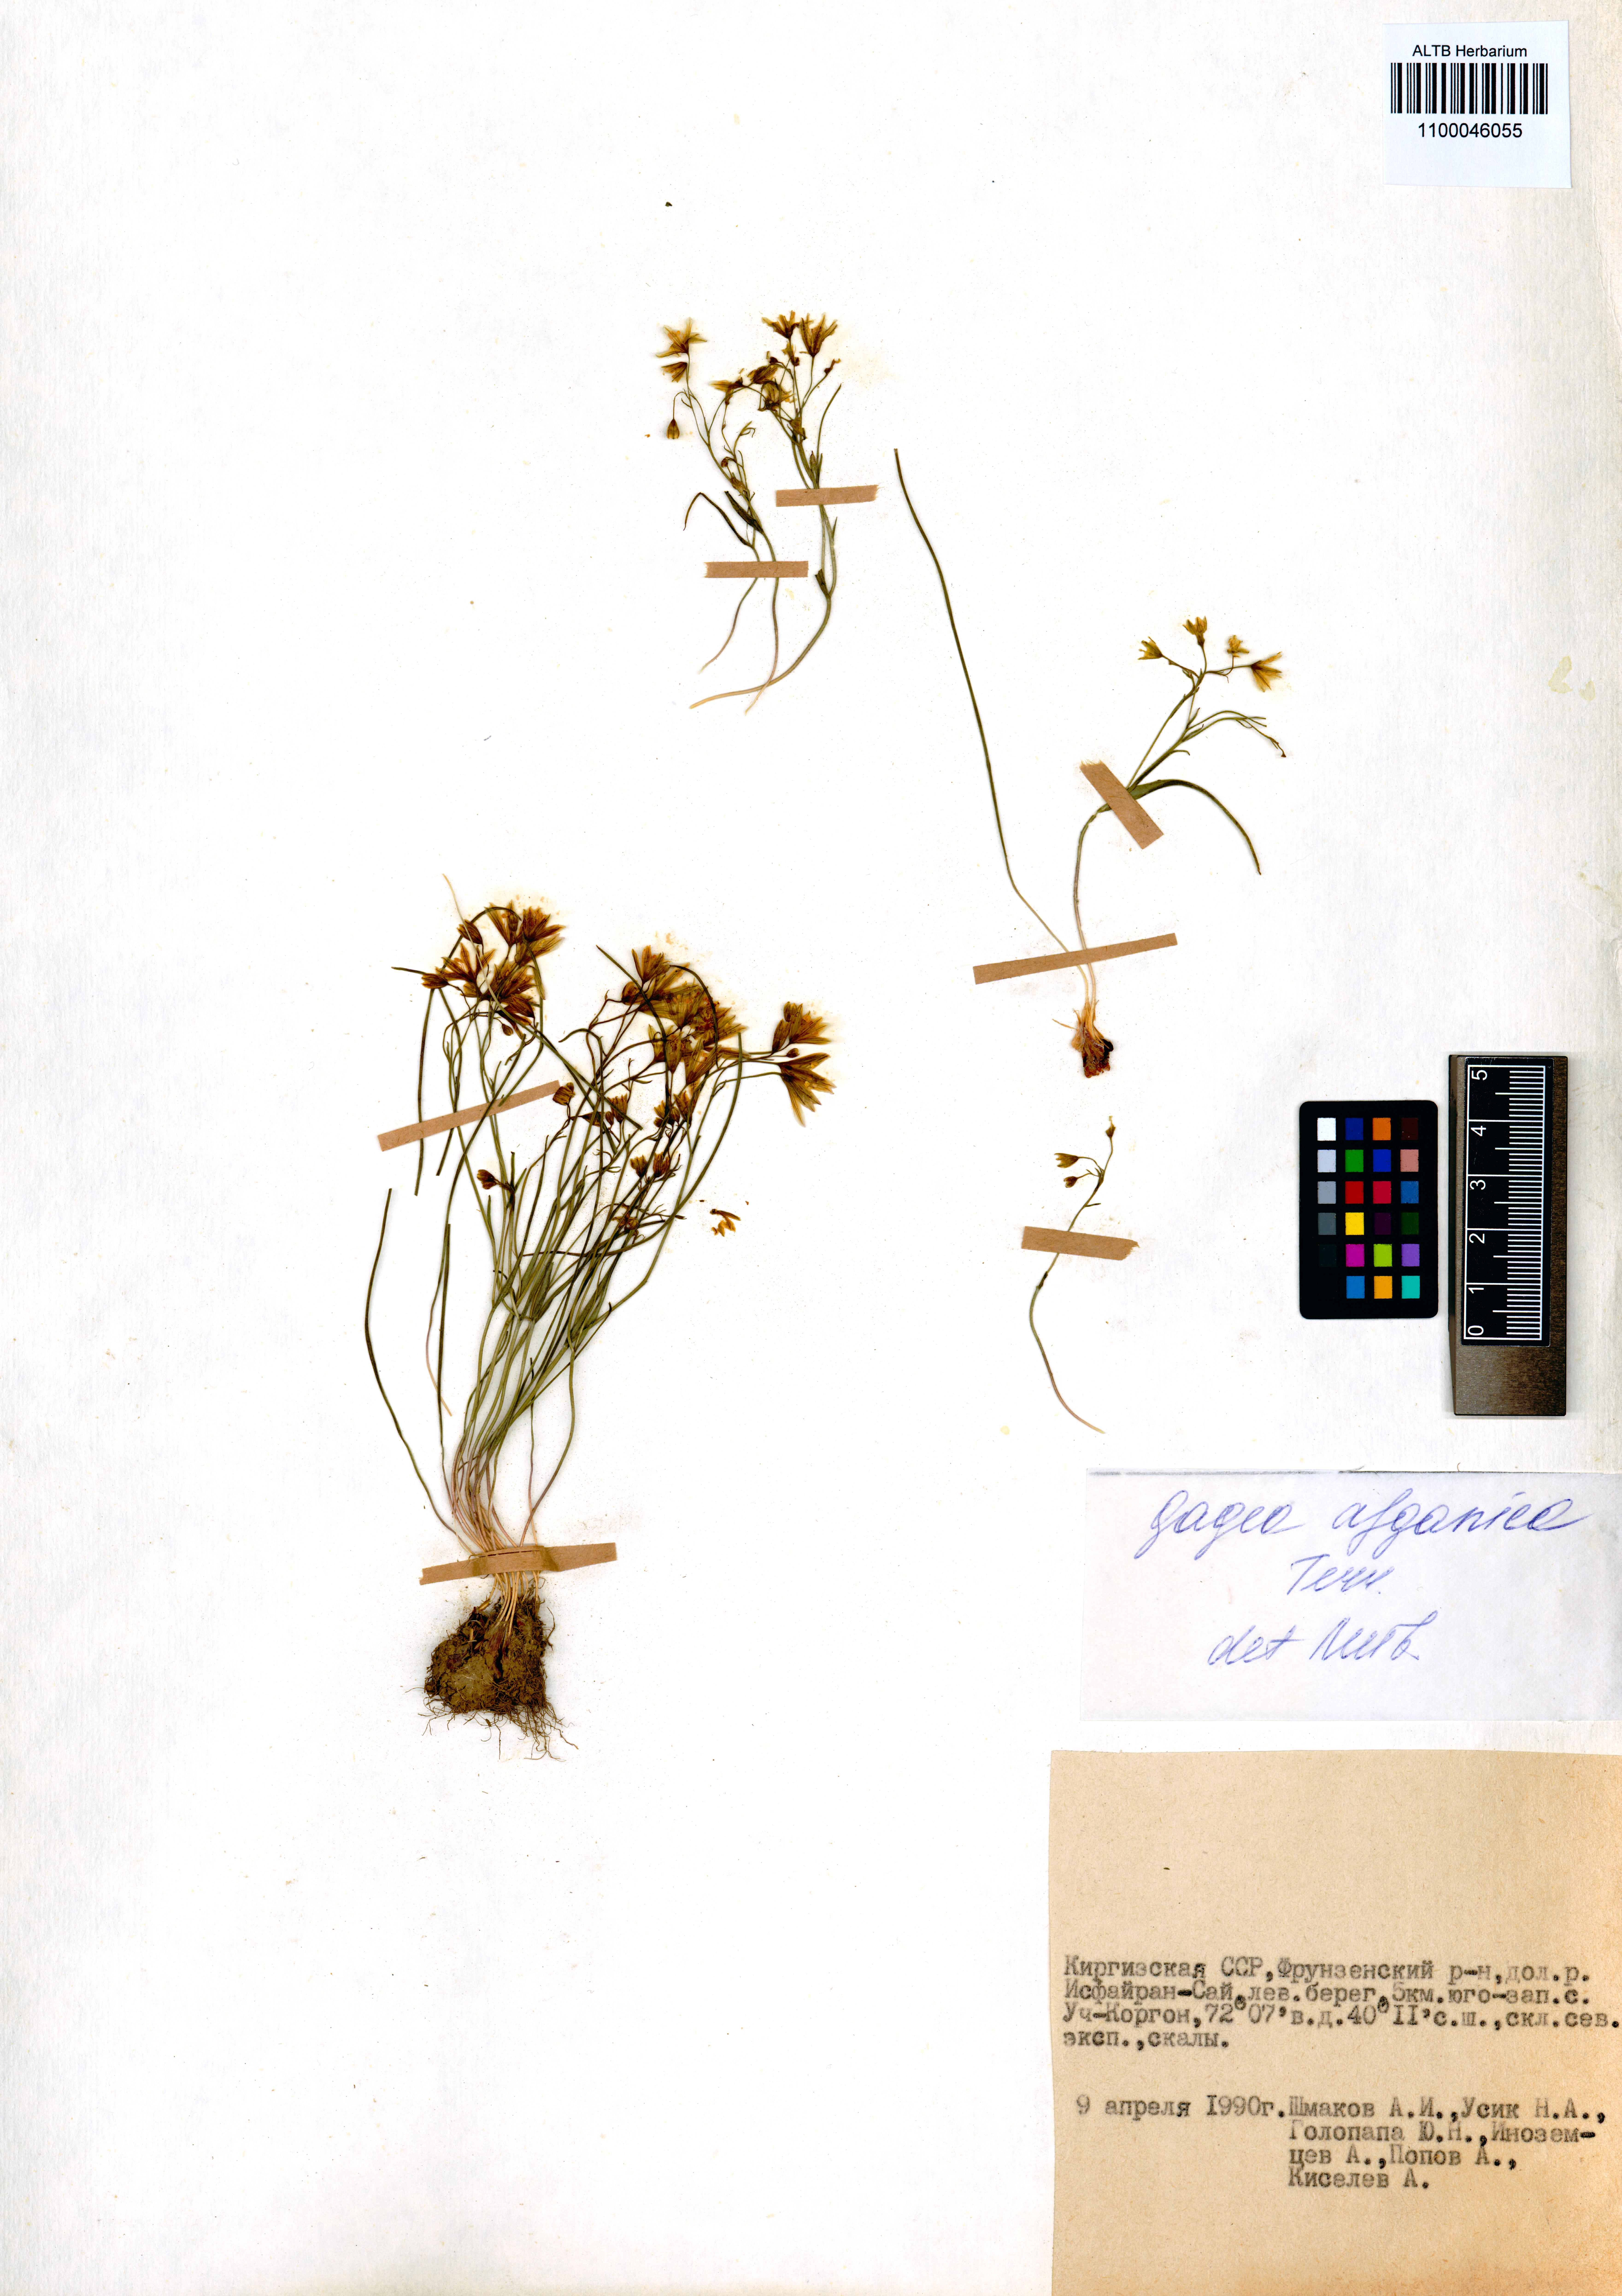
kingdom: Plantae
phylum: Tracheophyta
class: Liliopsida
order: Liliales
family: Liliaceae
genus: Gagea
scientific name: Gagea afghanica
